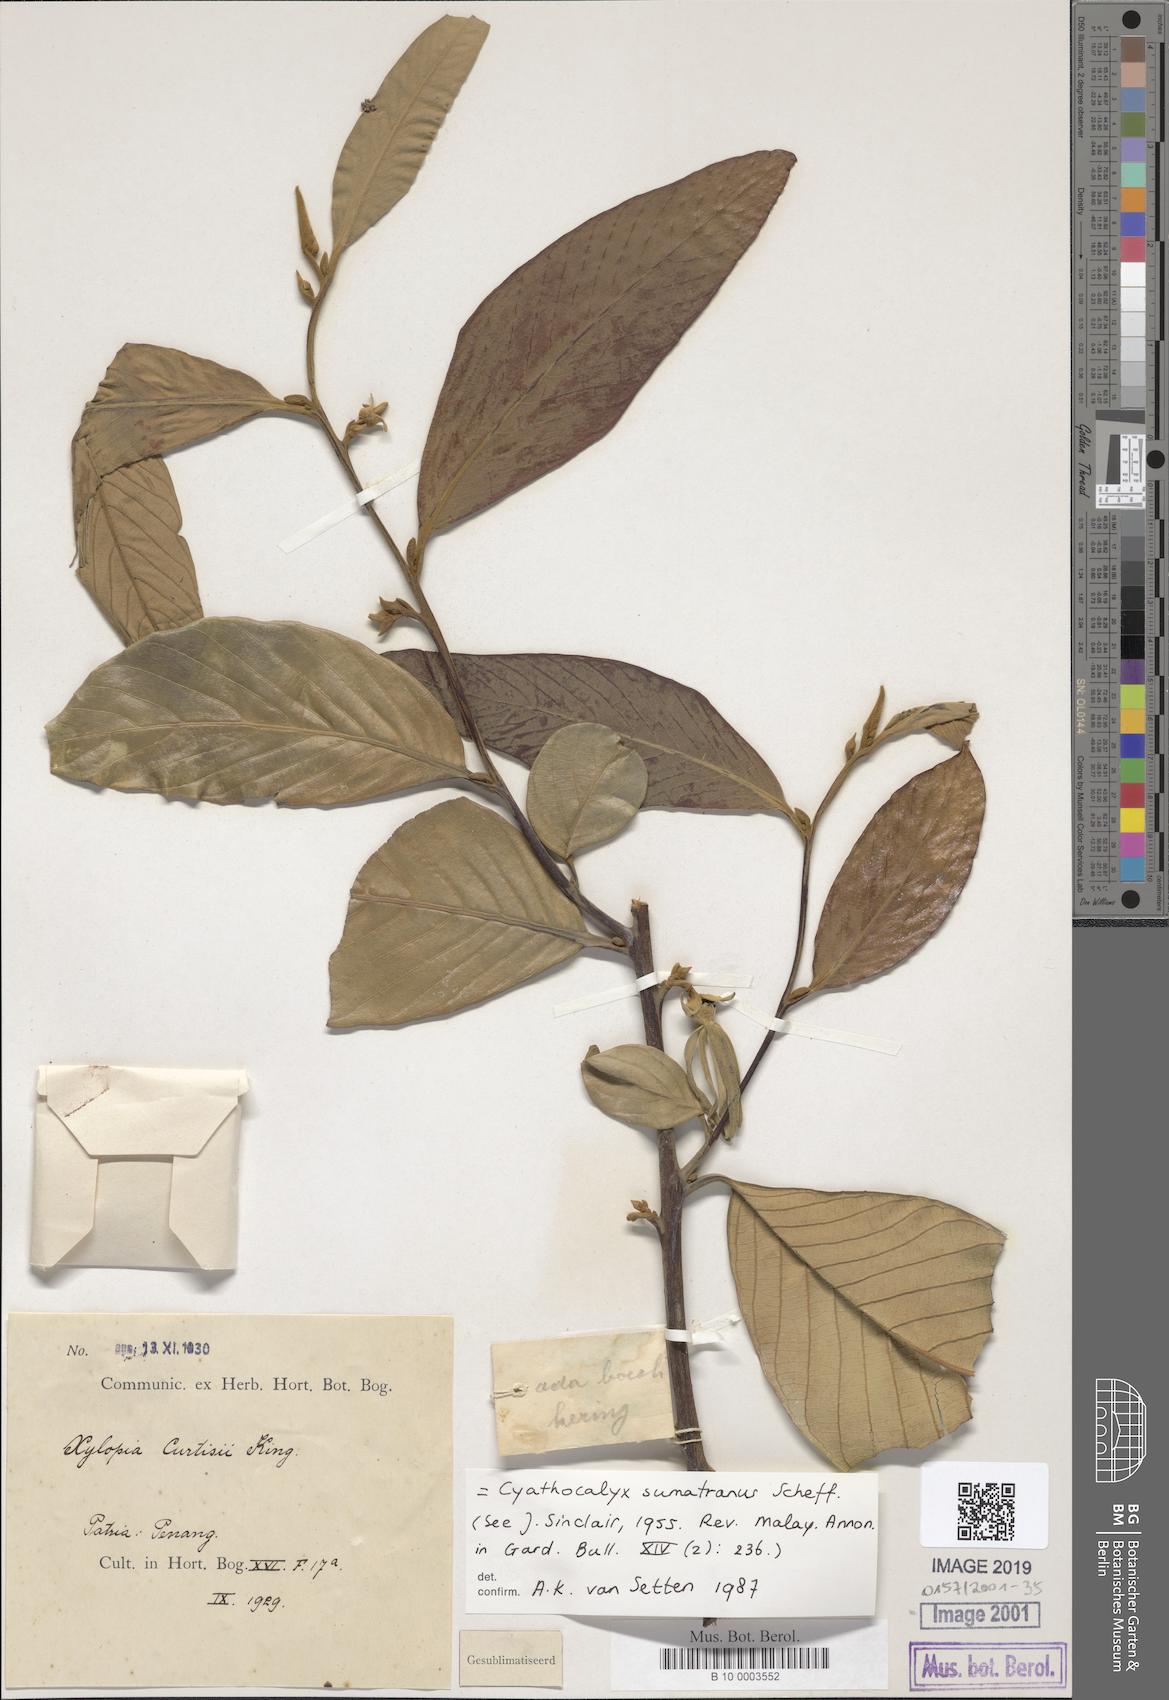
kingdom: Plantae
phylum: Tracheophyta
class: Magnoliopsida
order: Magnoliales
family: Annonaceae
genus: Cyathocalyx
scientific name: Cyathocalyx sumatranus
